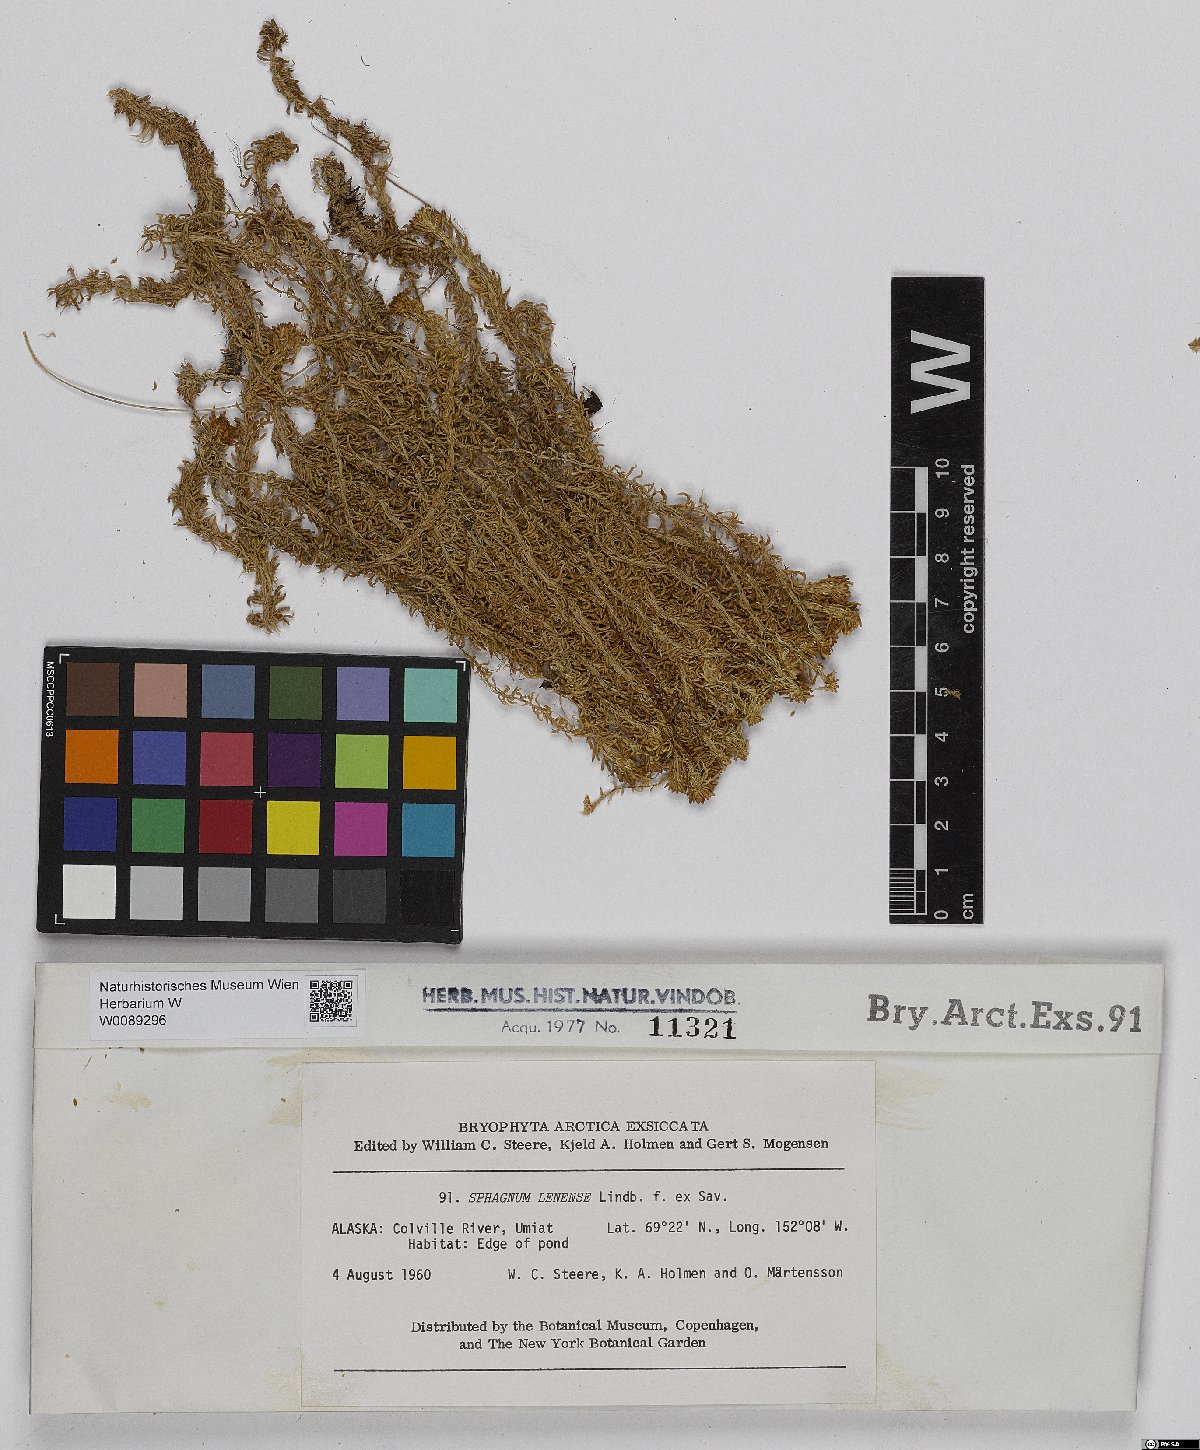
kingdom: Plantae
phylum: Bryophyta
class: Sphagnopsida
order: Sphagnales
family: Sphagnaceae
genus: Sphagnum
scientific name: Sphagnum lenense
